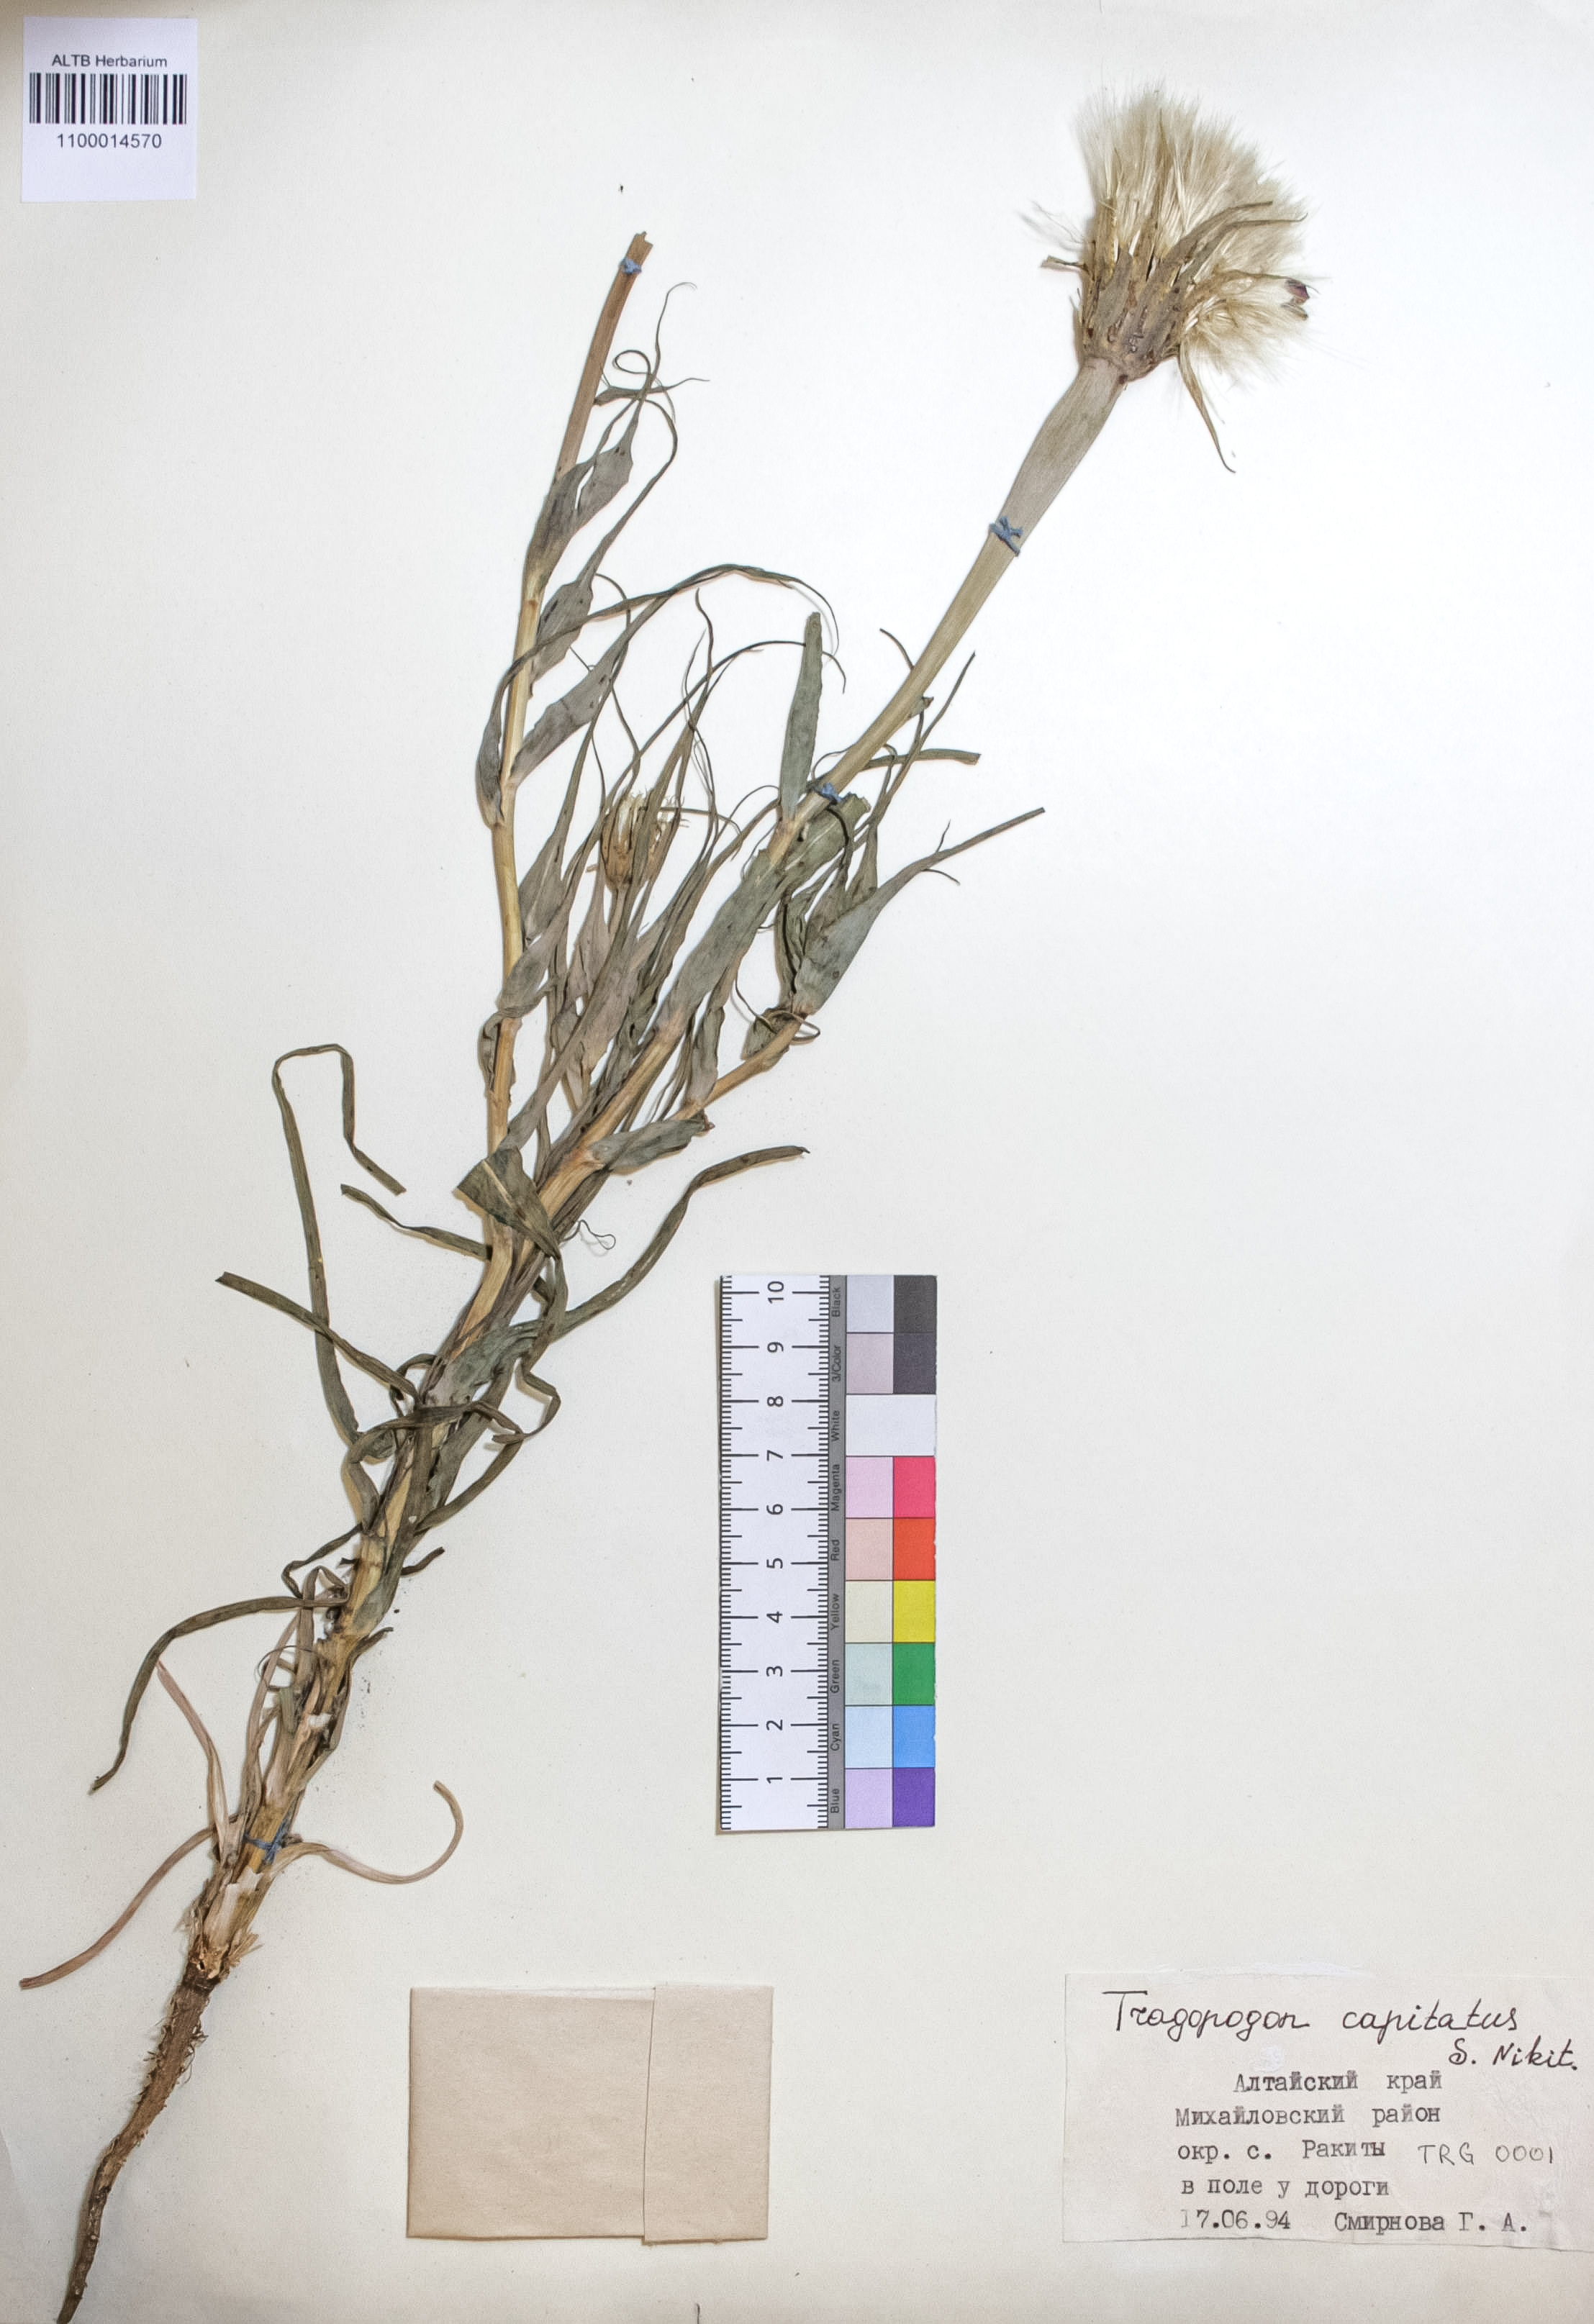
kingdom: Plantae
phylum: Tracheophyta
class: Magnoliopsida
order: Asterales
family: Asteraceae
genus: Tragopogon
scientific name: Tragopogon capitatus
